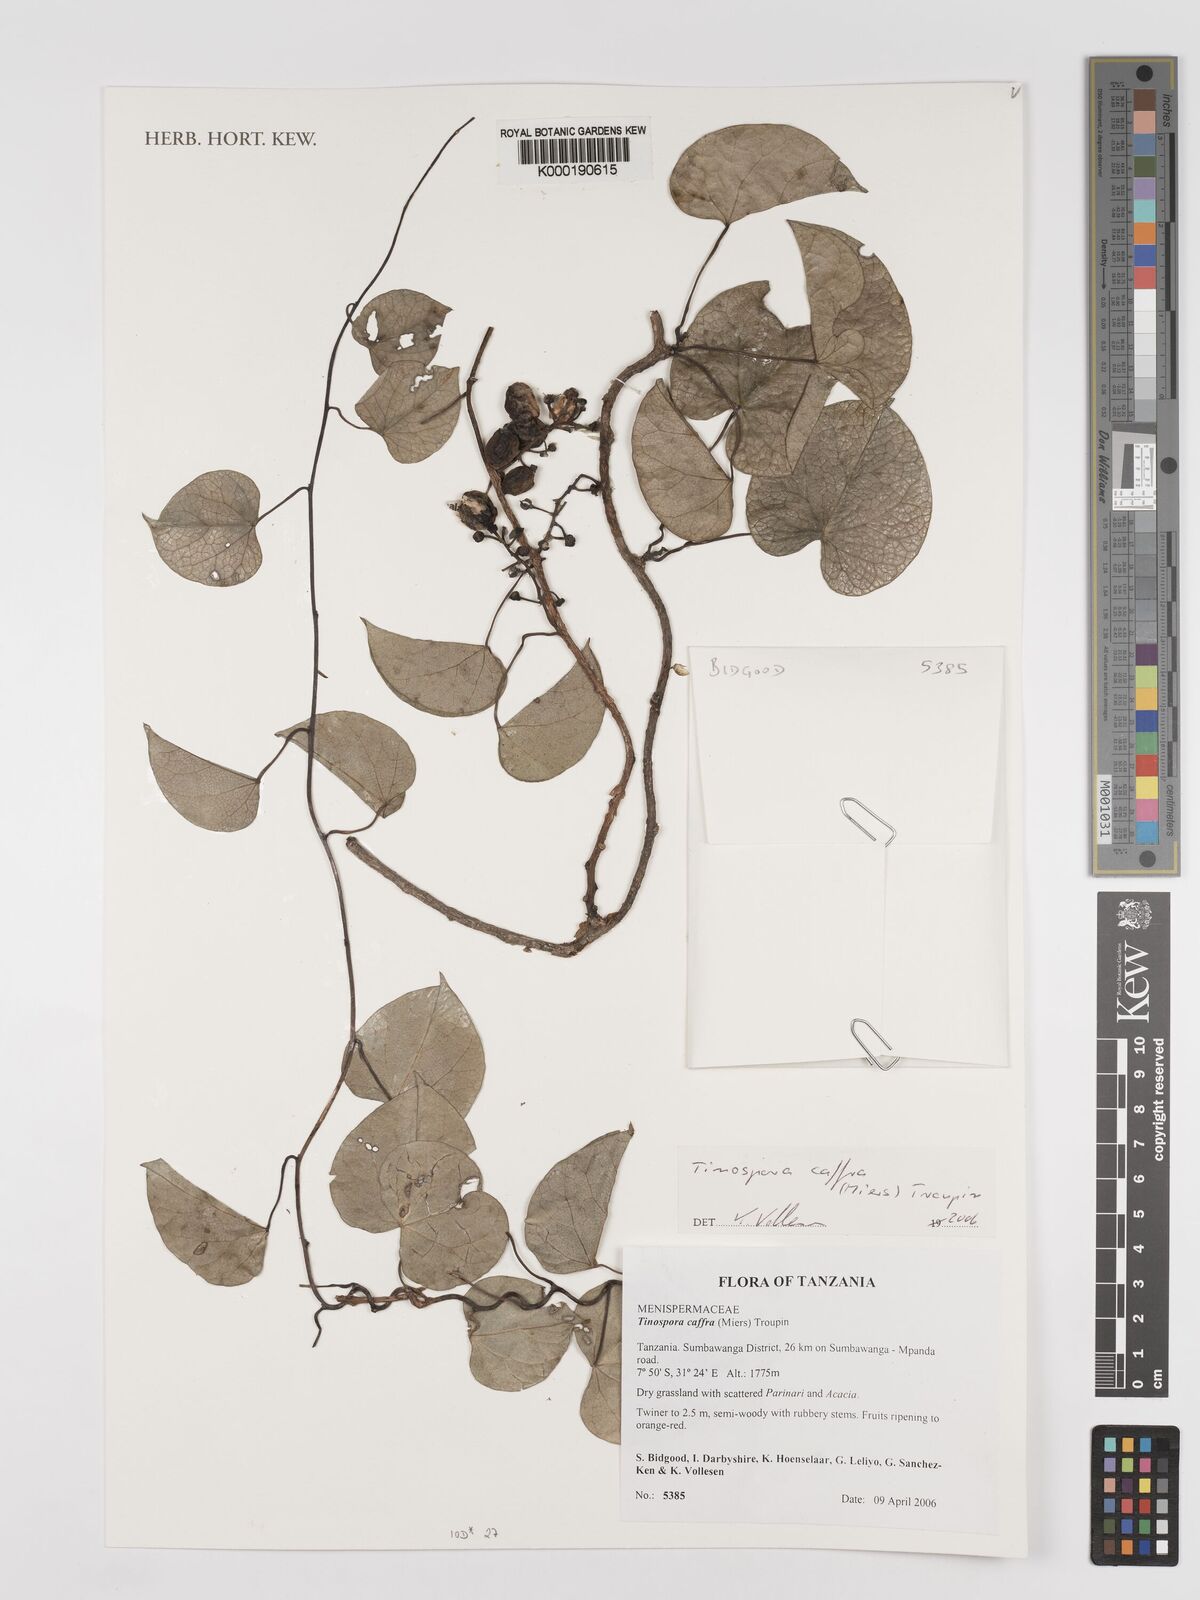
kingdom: Plantae
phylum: Tracheophyta
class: Magnoliopsida
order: Ranunculales
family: Menispermaceae
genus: Tinospora
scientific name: Tinospora caffra
